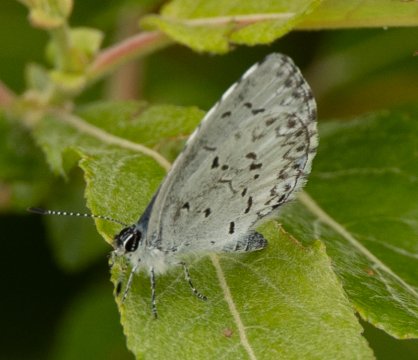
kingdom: Animalia
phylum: Arthropoda
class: Insecta
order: Lepidoptera
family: Lycaenidae
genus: Celastrina
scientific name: Celastrina
